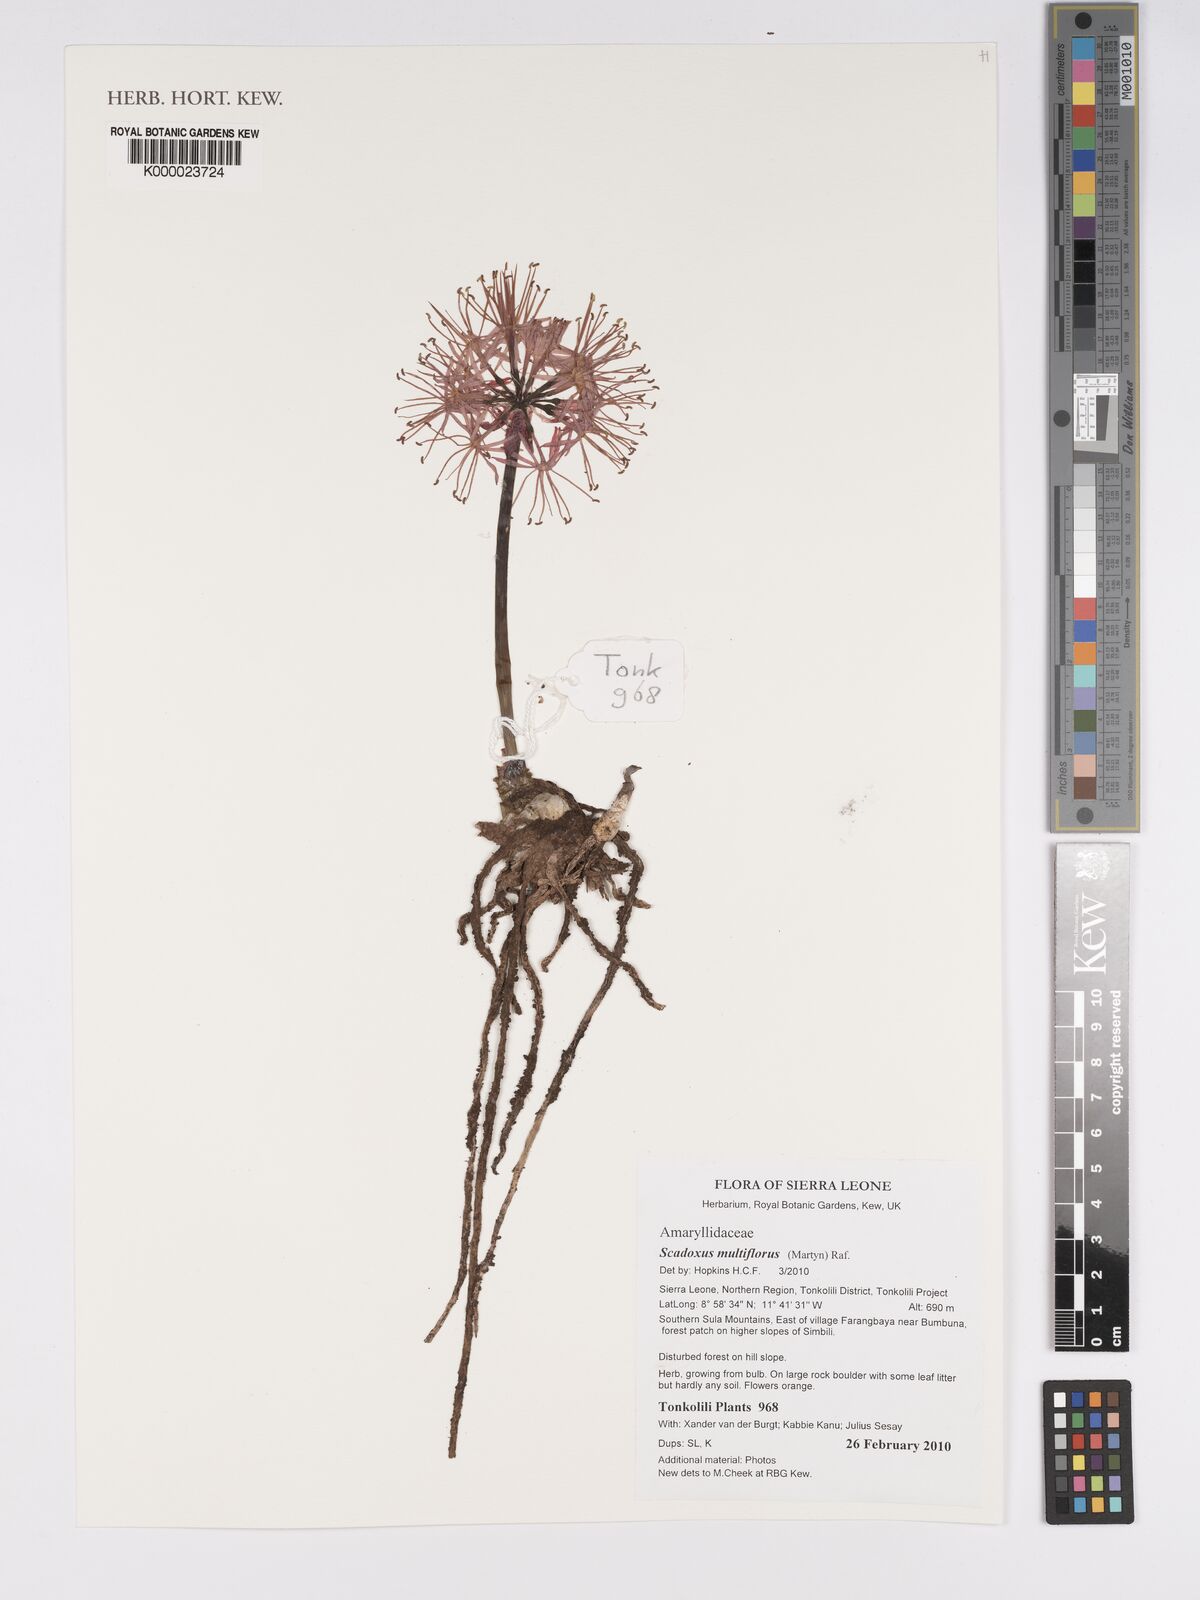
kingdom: Plantae
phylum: Tracheophyta
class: Liliopsida
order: Asparagales
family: Amaryllidaceae
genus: Scadoxus
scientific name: Scadoxus multiflorus
